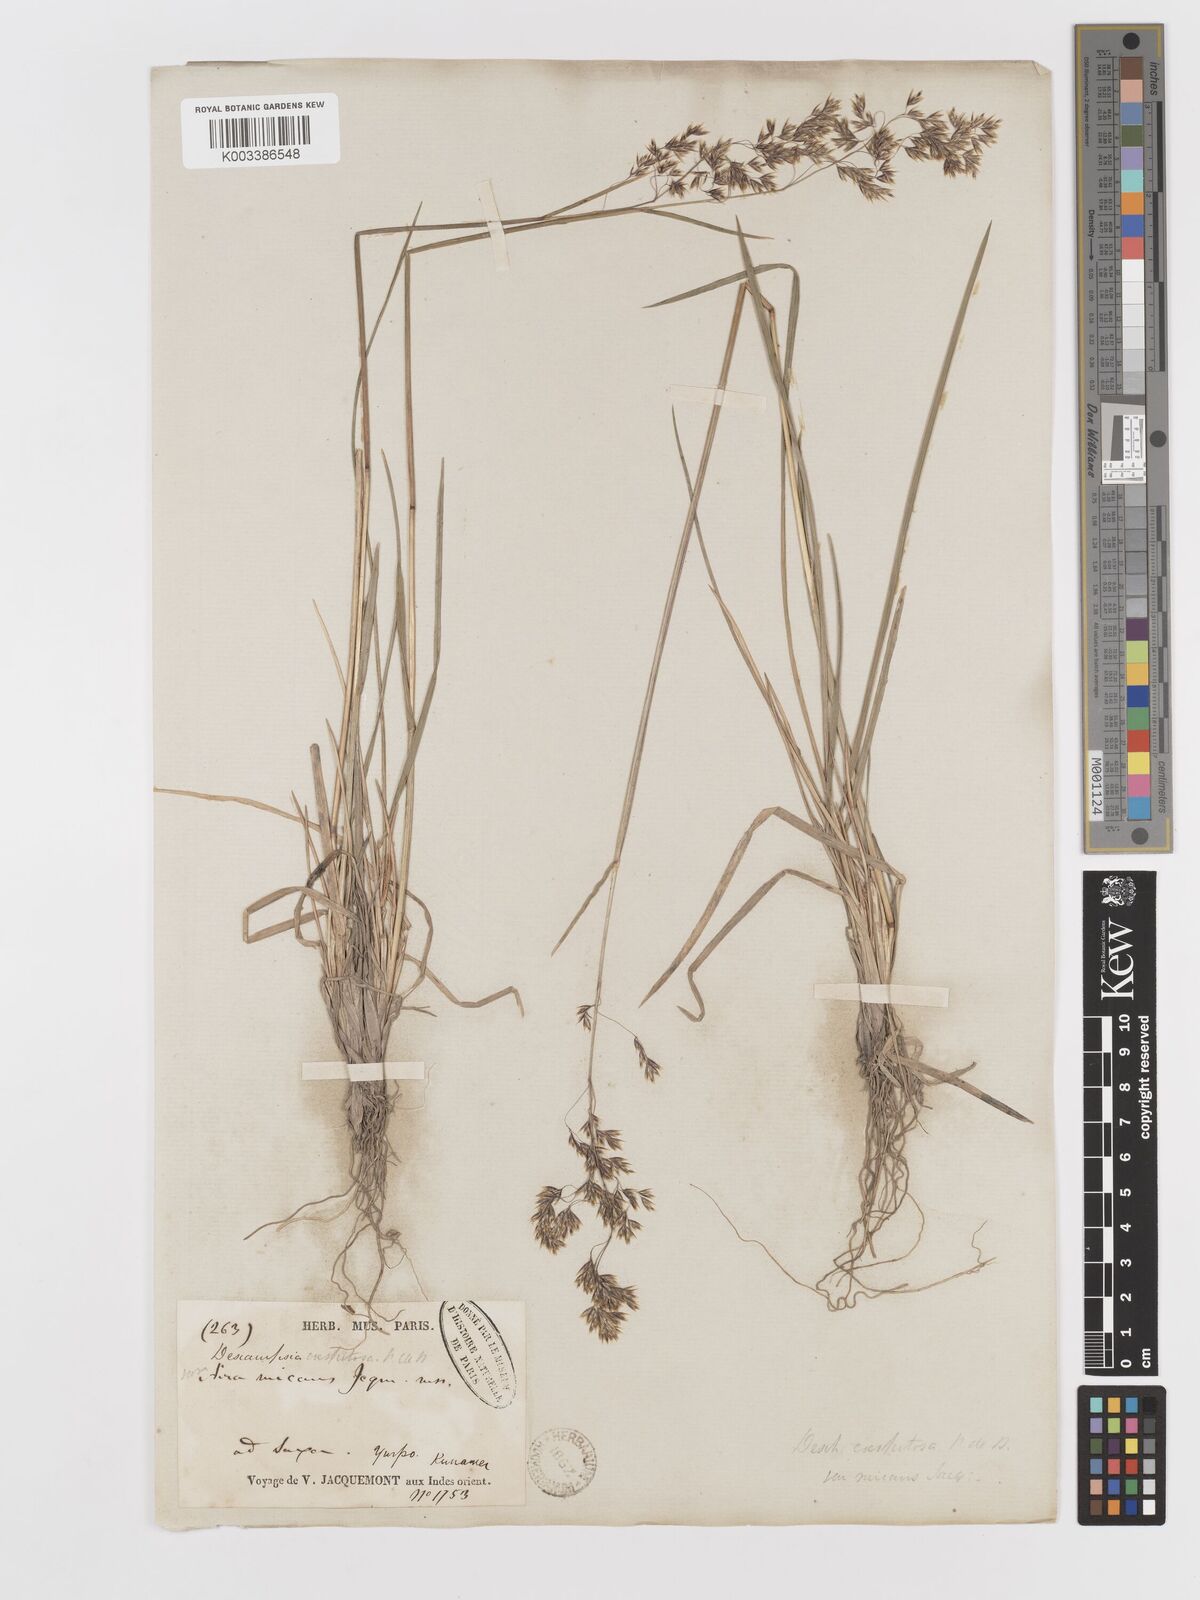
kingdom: Plantae
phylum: Tracheophyta
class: Liliopsida
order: Poales
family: Poaceae
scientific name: Poaceae
